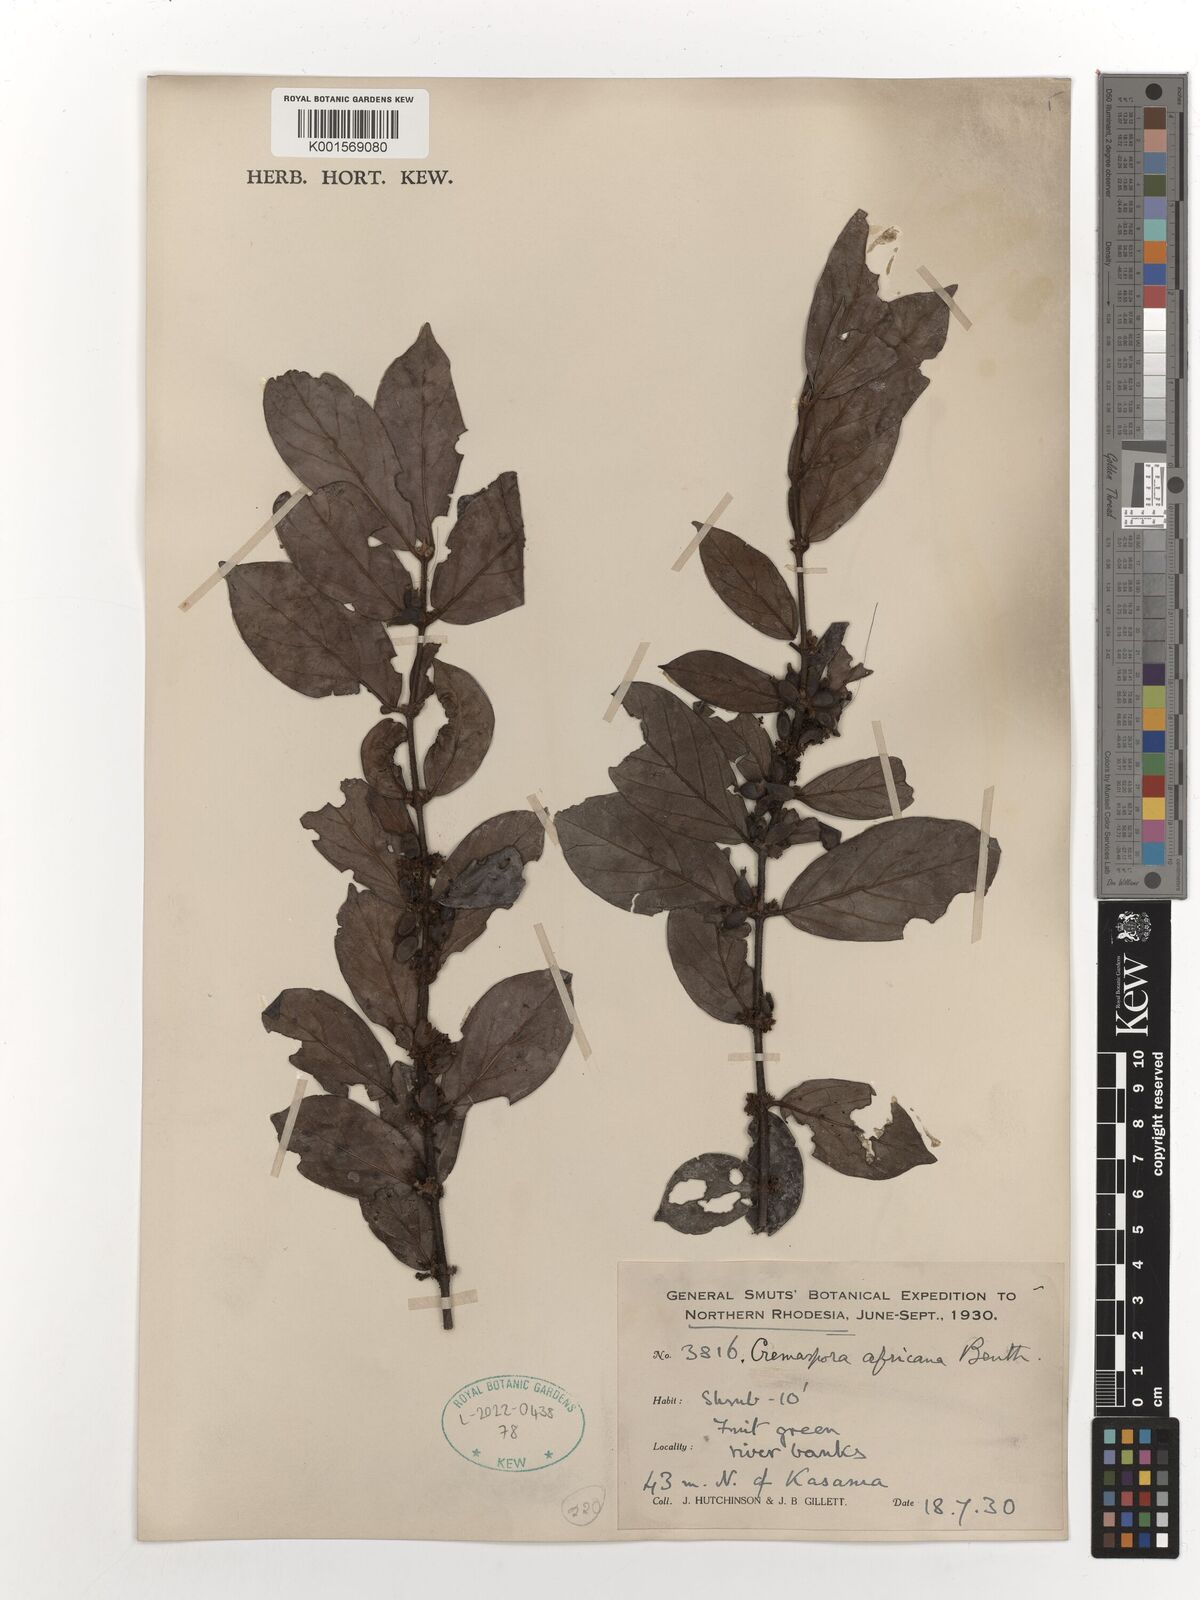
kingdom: Plantae
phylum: Tracheophyta
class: Magnoliopsida
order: Gentianales
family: Rubiaceae
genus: Cremaspora
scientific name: Cremaspora triflora
